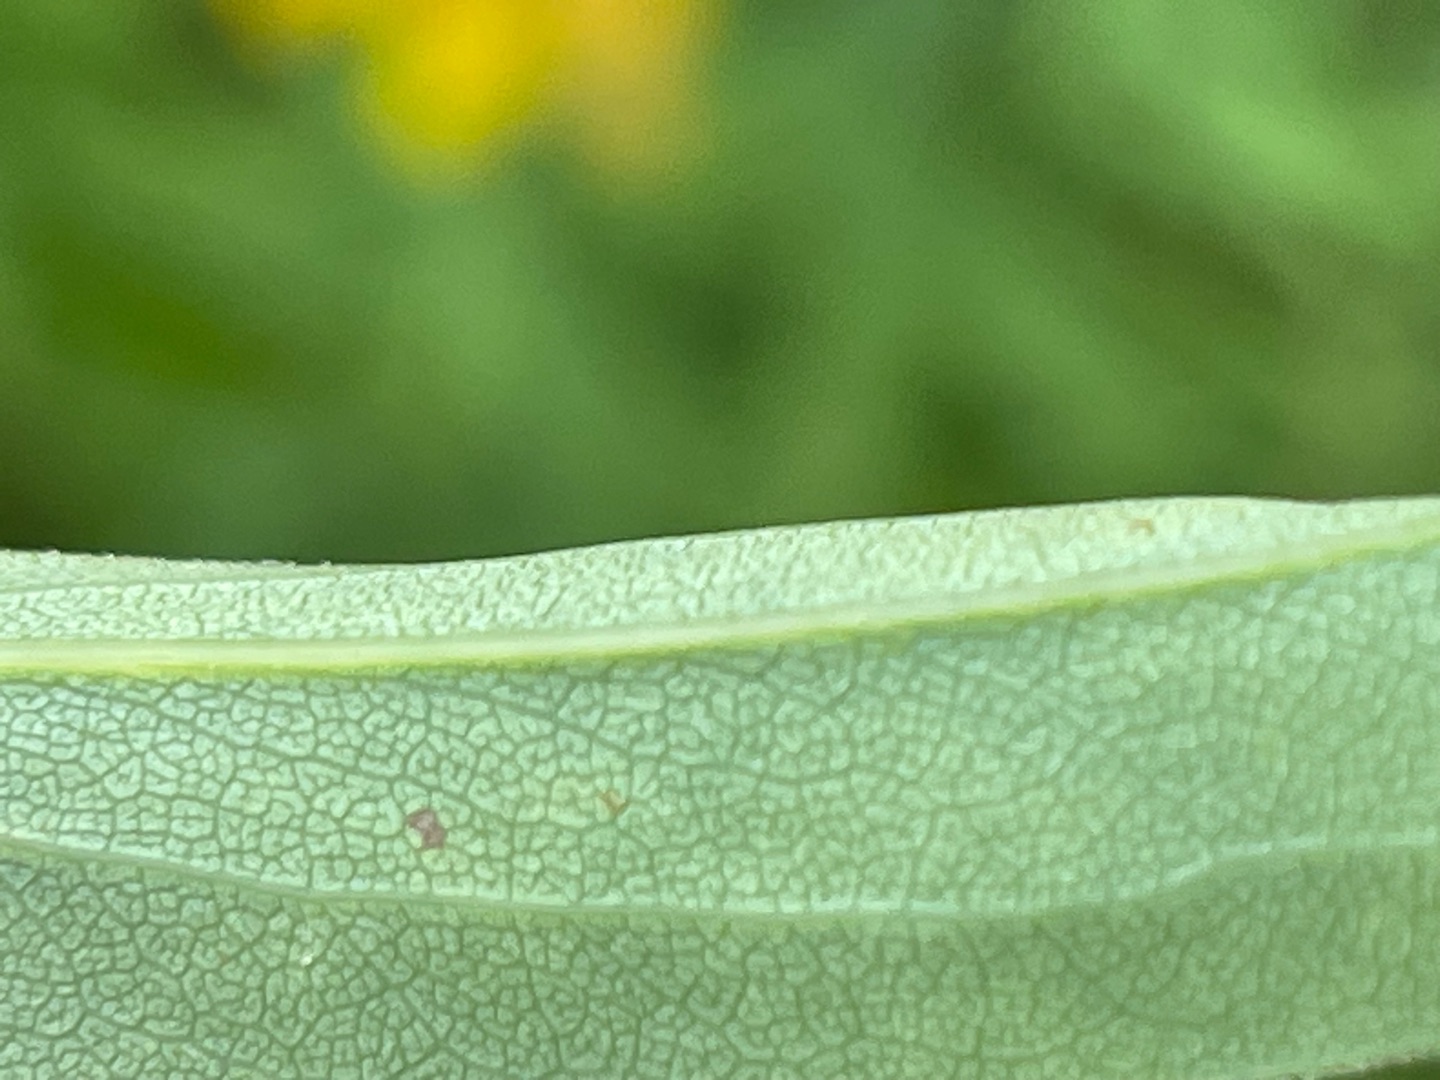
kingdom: Plantae
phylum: Tracheophyta
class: Magnoliopsida
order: Asterales
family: Asteraceae
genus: Solidago
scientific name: Solidago gigantea
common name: Sildig gyldenris
